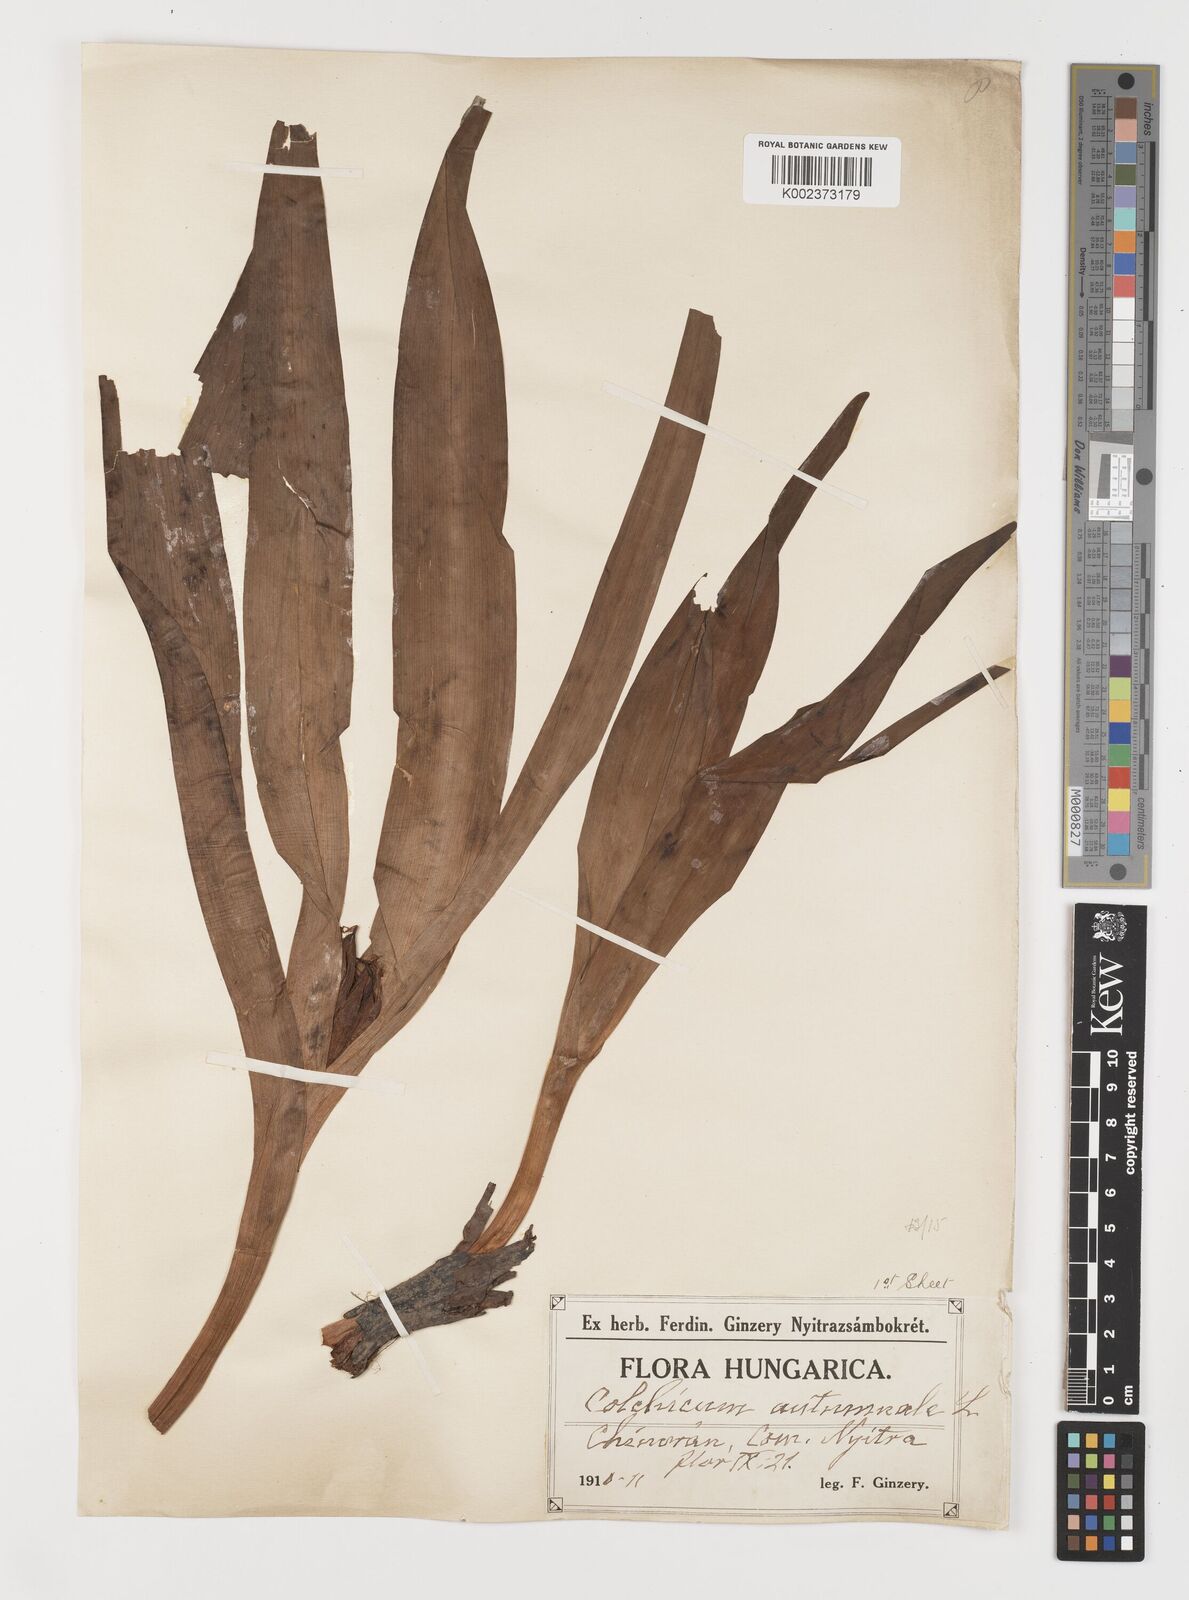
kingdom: Plantae
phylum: Tracheophyta
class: Liliopsida
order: Liliales
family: Colchicaceae
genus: Colchicum
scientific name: Colchicum autumnale
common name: Autumn crocus
